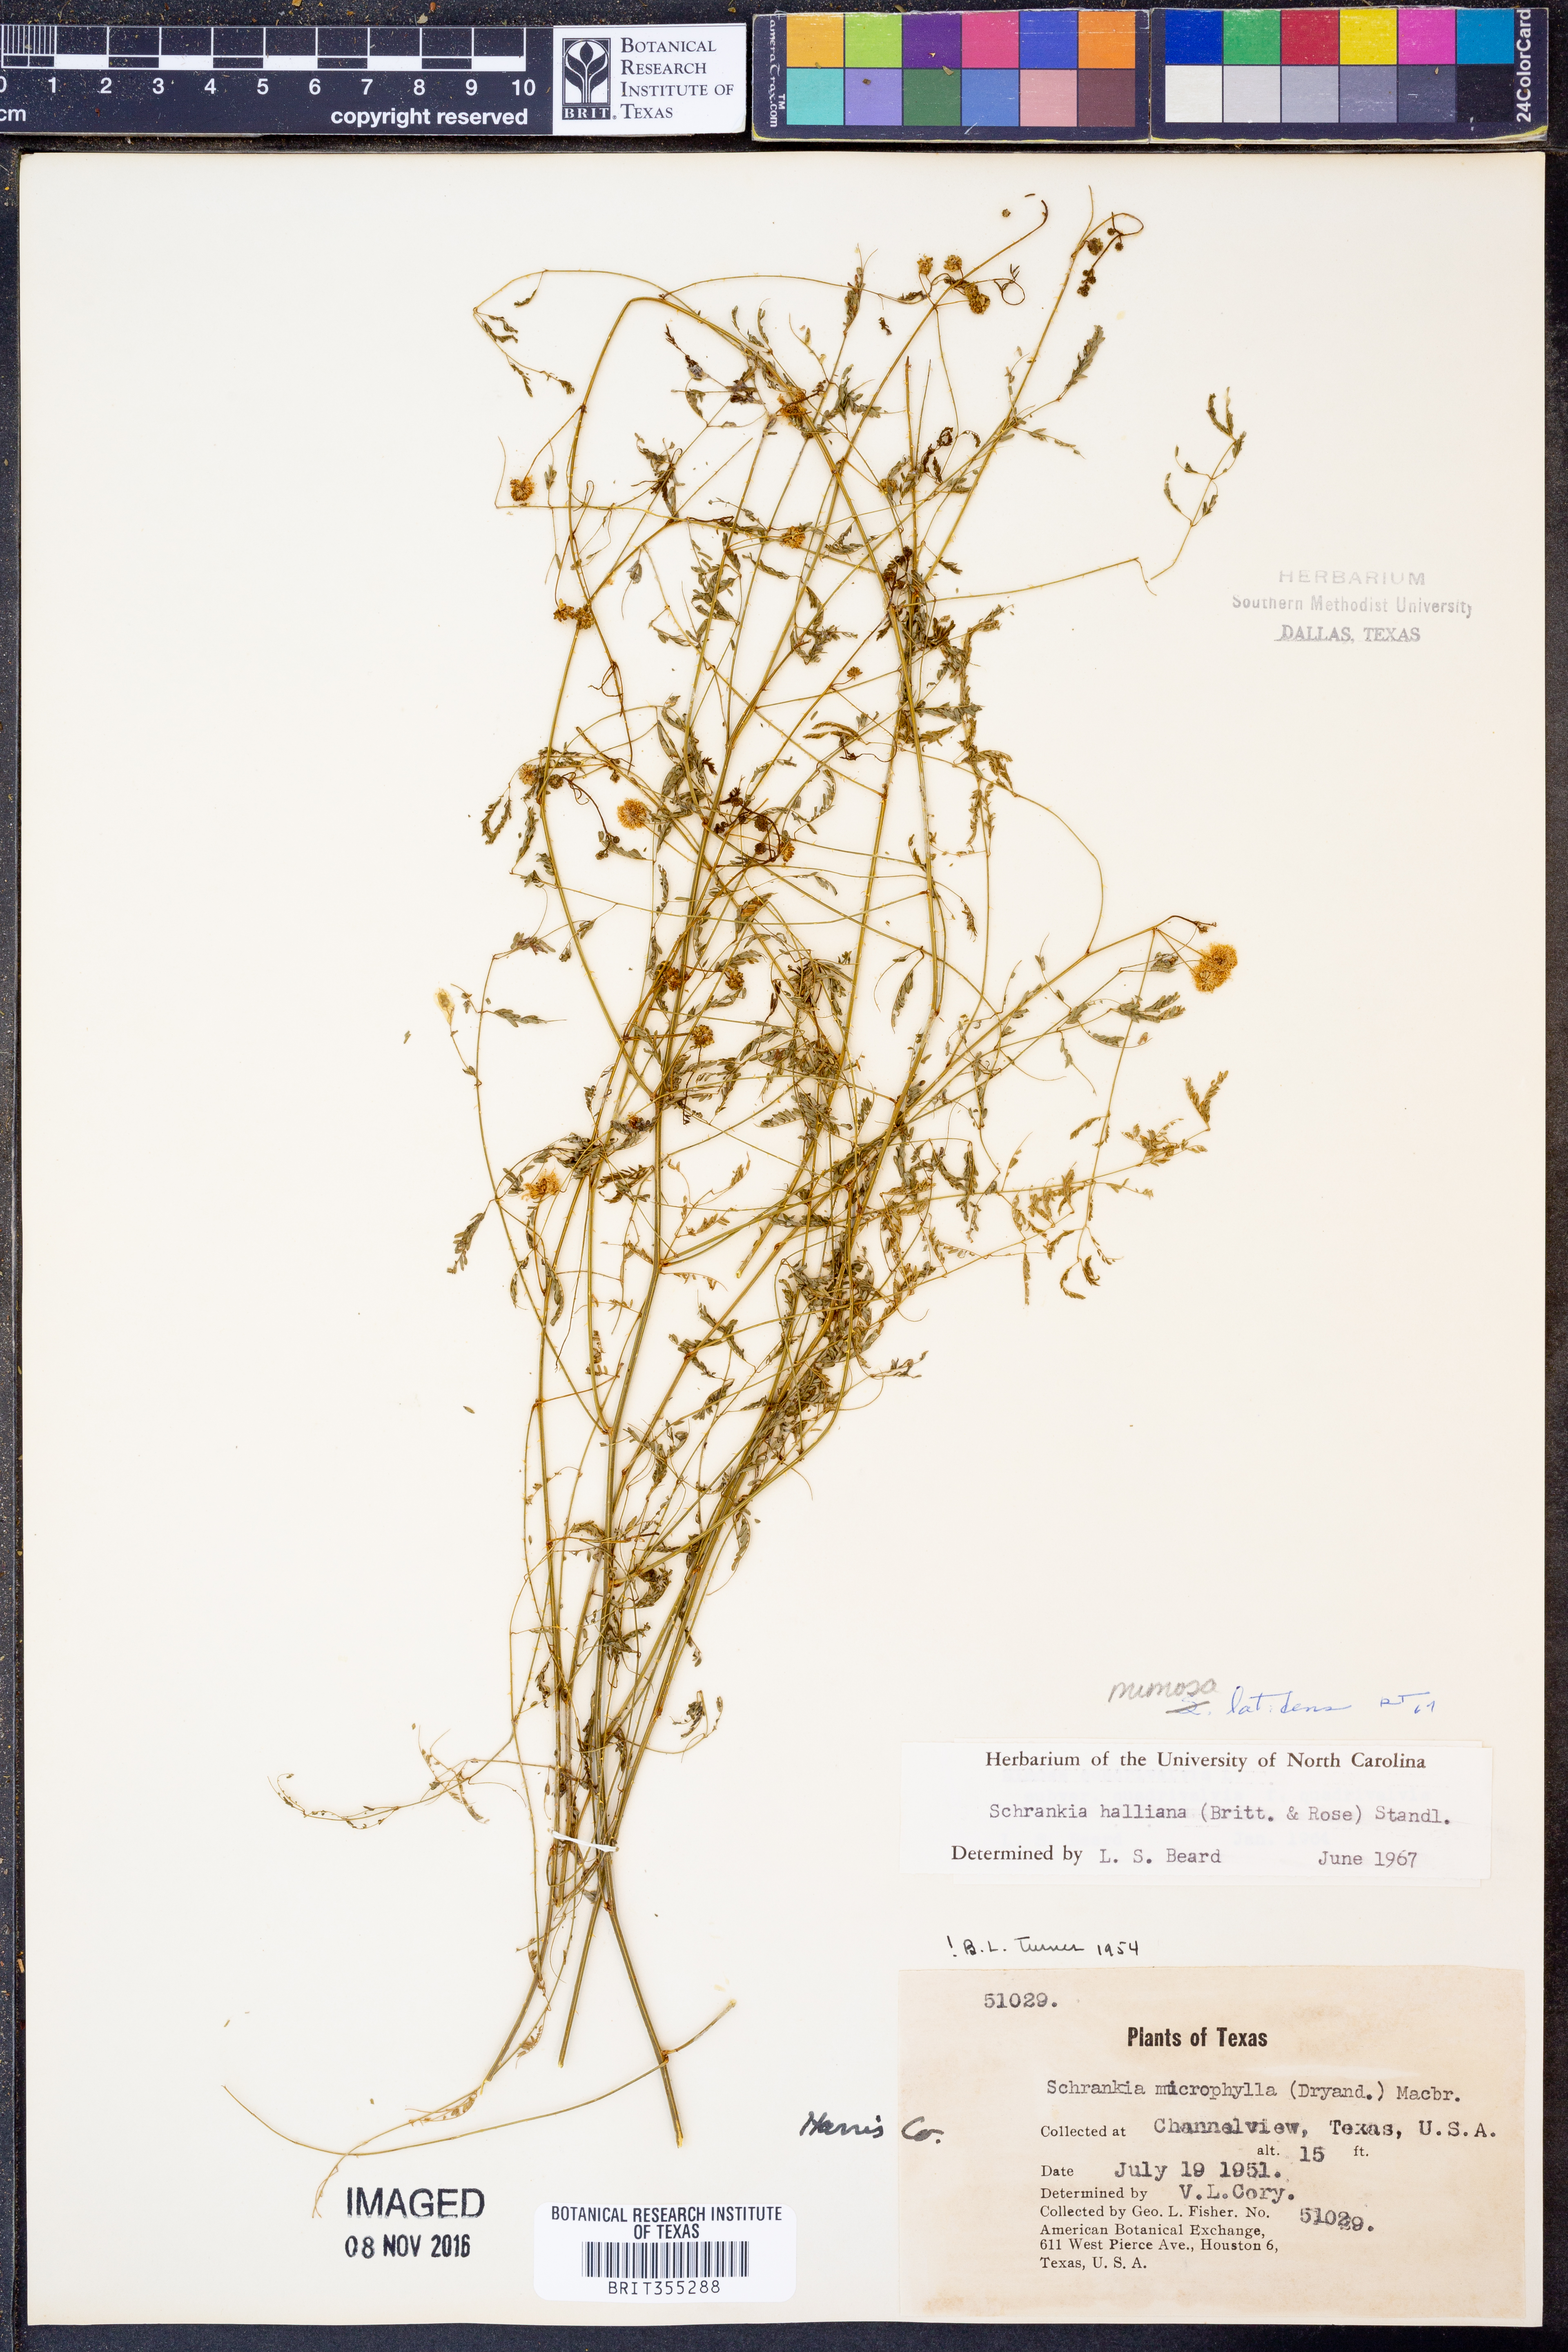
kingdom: Plantae
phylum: Tracheophyta
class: Magnoliopsida
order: Fabales
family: Fabaceae
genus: Mimosa
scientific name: Mimosa latidens
